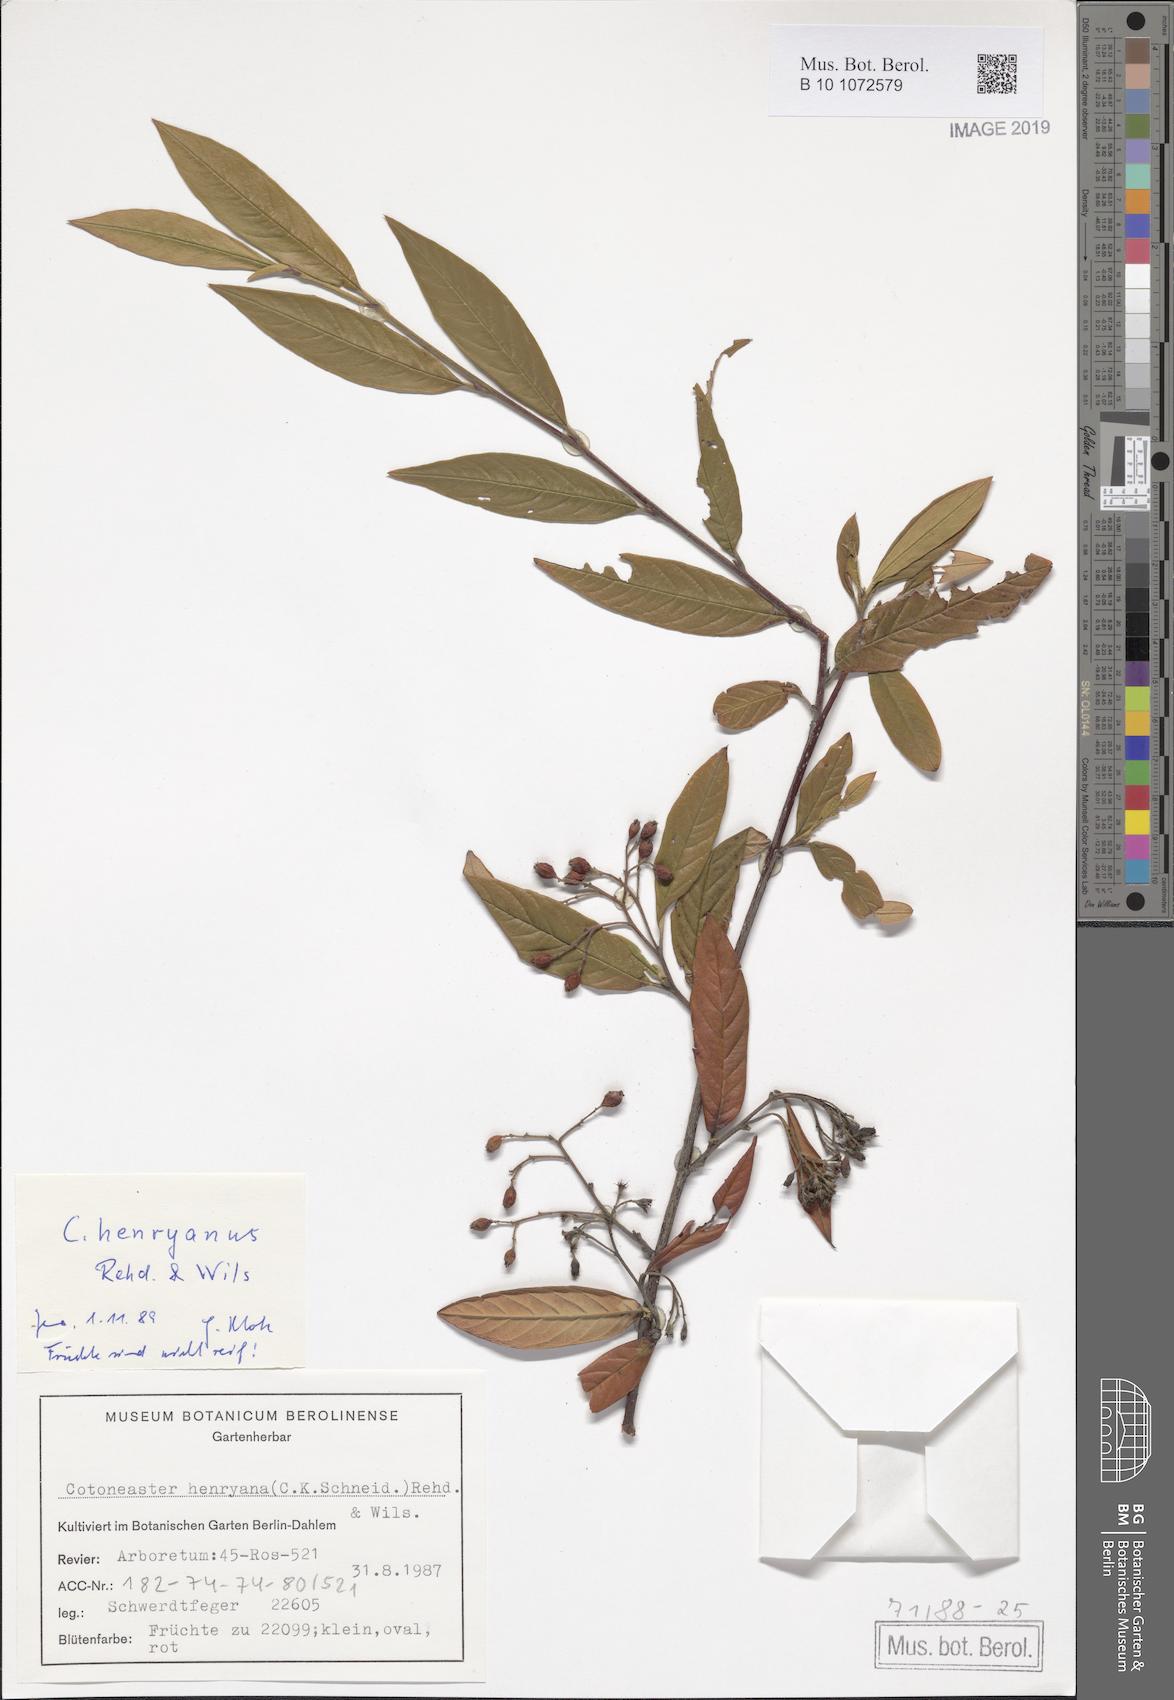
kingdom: Plantae
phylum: Tracheophyta
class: Magnoliopsida
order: Rosales
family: Rosaceae
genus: Cotoneaster
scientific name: Cotoneaster salicifolius
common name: Willow-leaved cotoneaster
